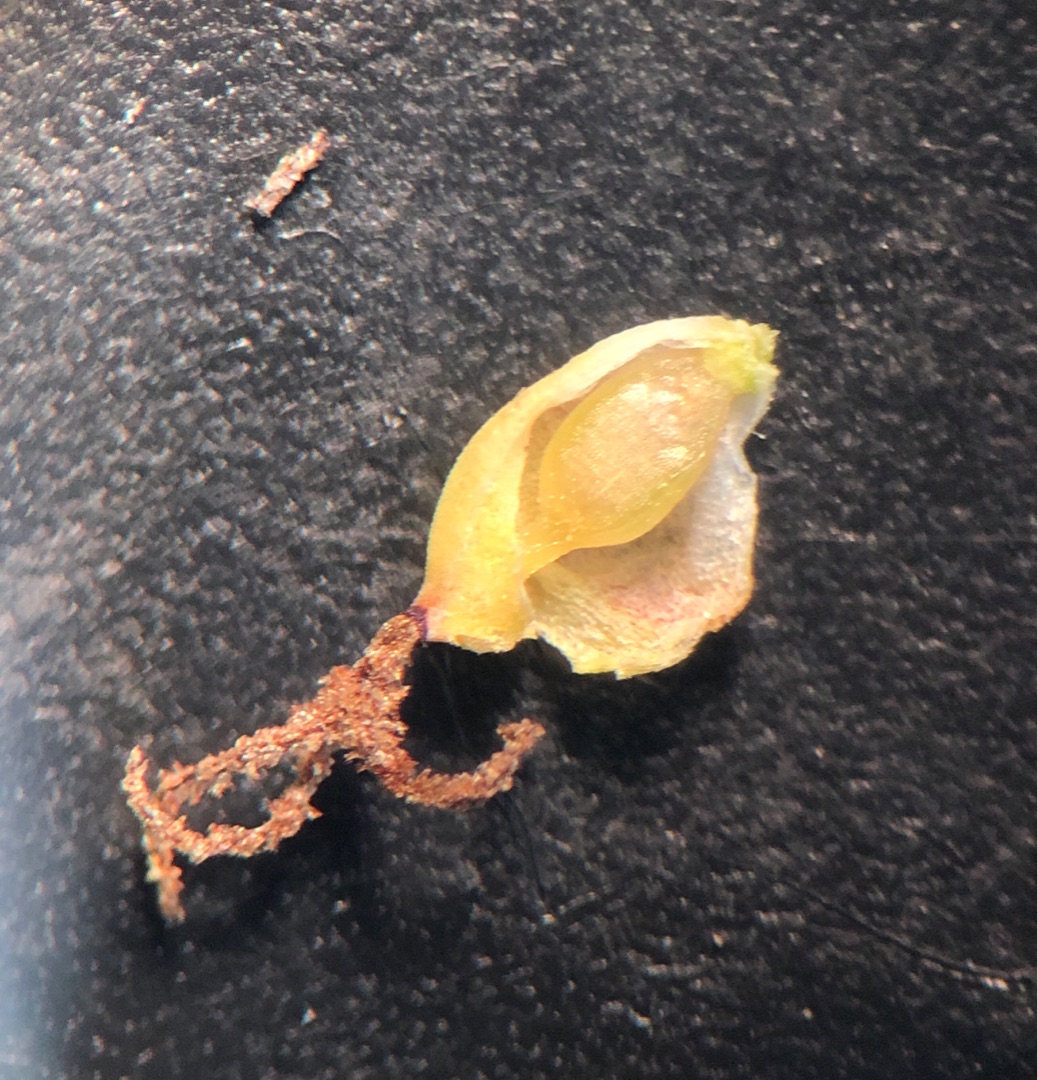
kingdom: Plantae
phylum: Tracheophyta
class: Liliopsida
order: Poales
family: Cyperaceae
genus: Carex
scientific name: Carex flacca
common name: Blågrøn star
